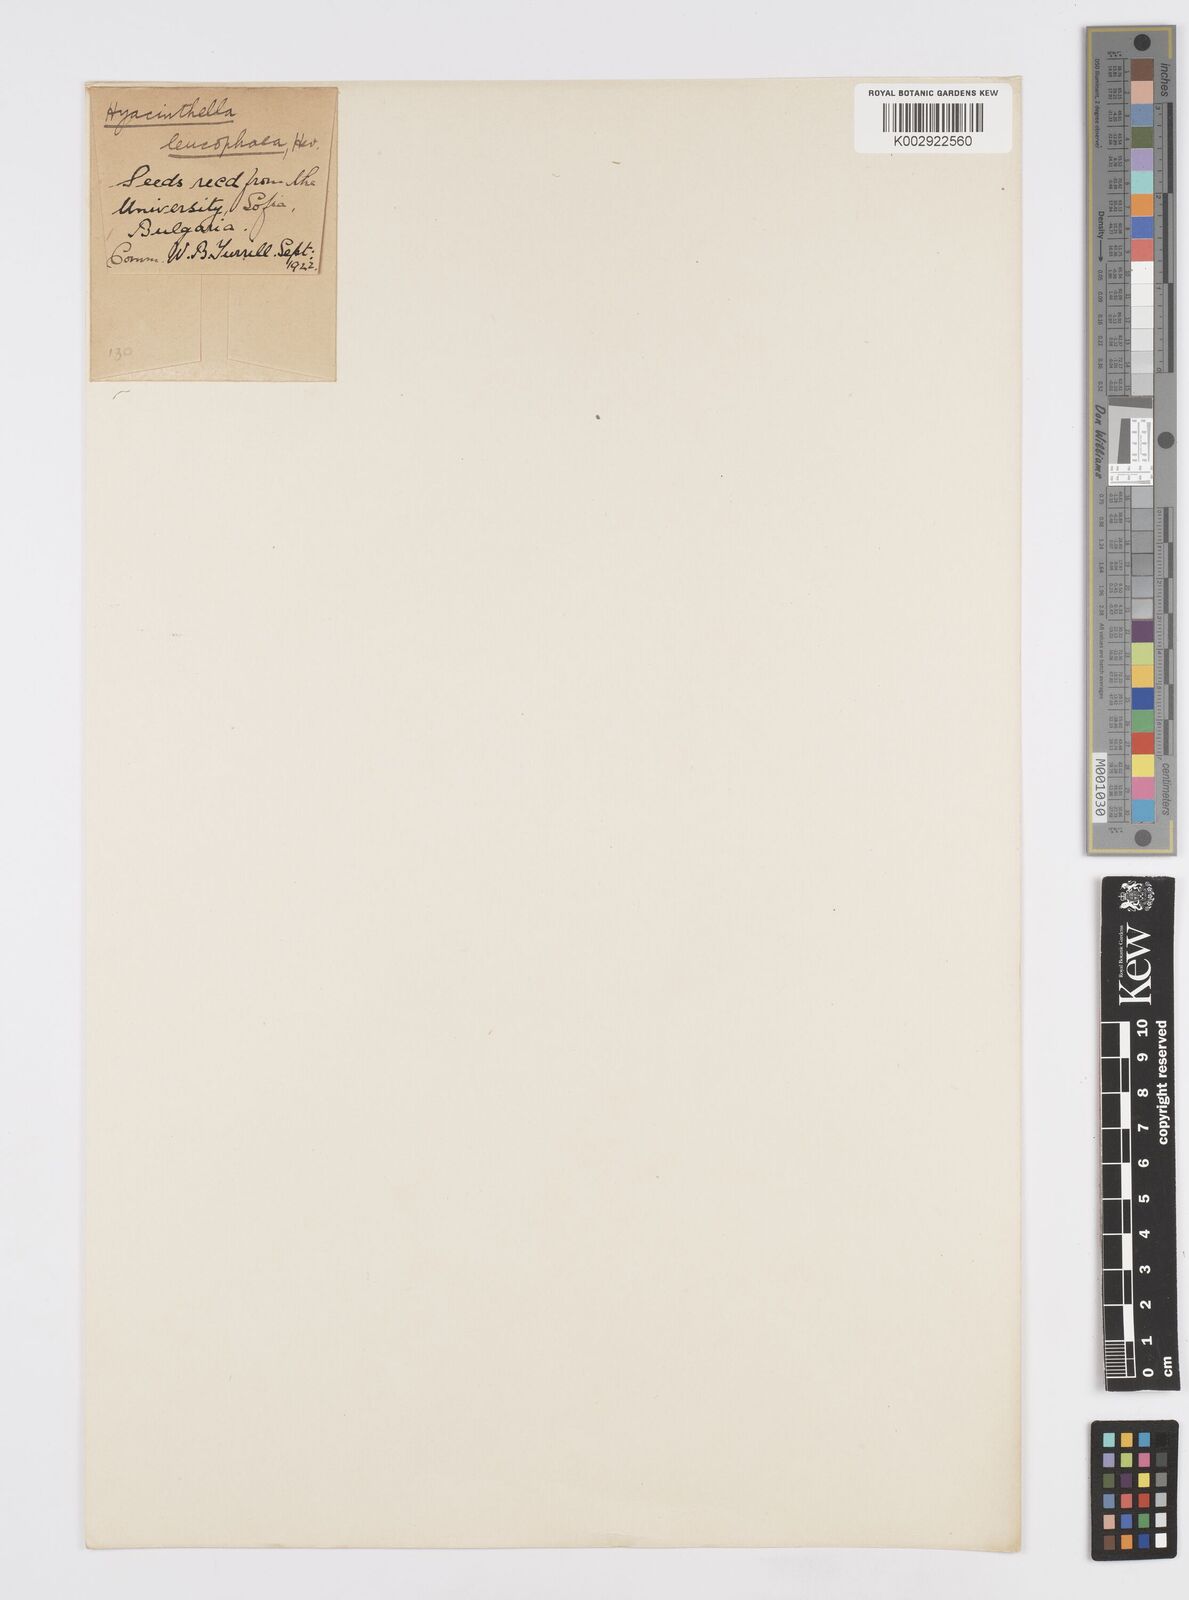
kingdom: Plantae
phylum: Tracheophyta
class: Liliopsida
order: Asparagales
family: Asparagaceae
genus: Hyacinthella
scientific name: Hyacinthella leucophaea
